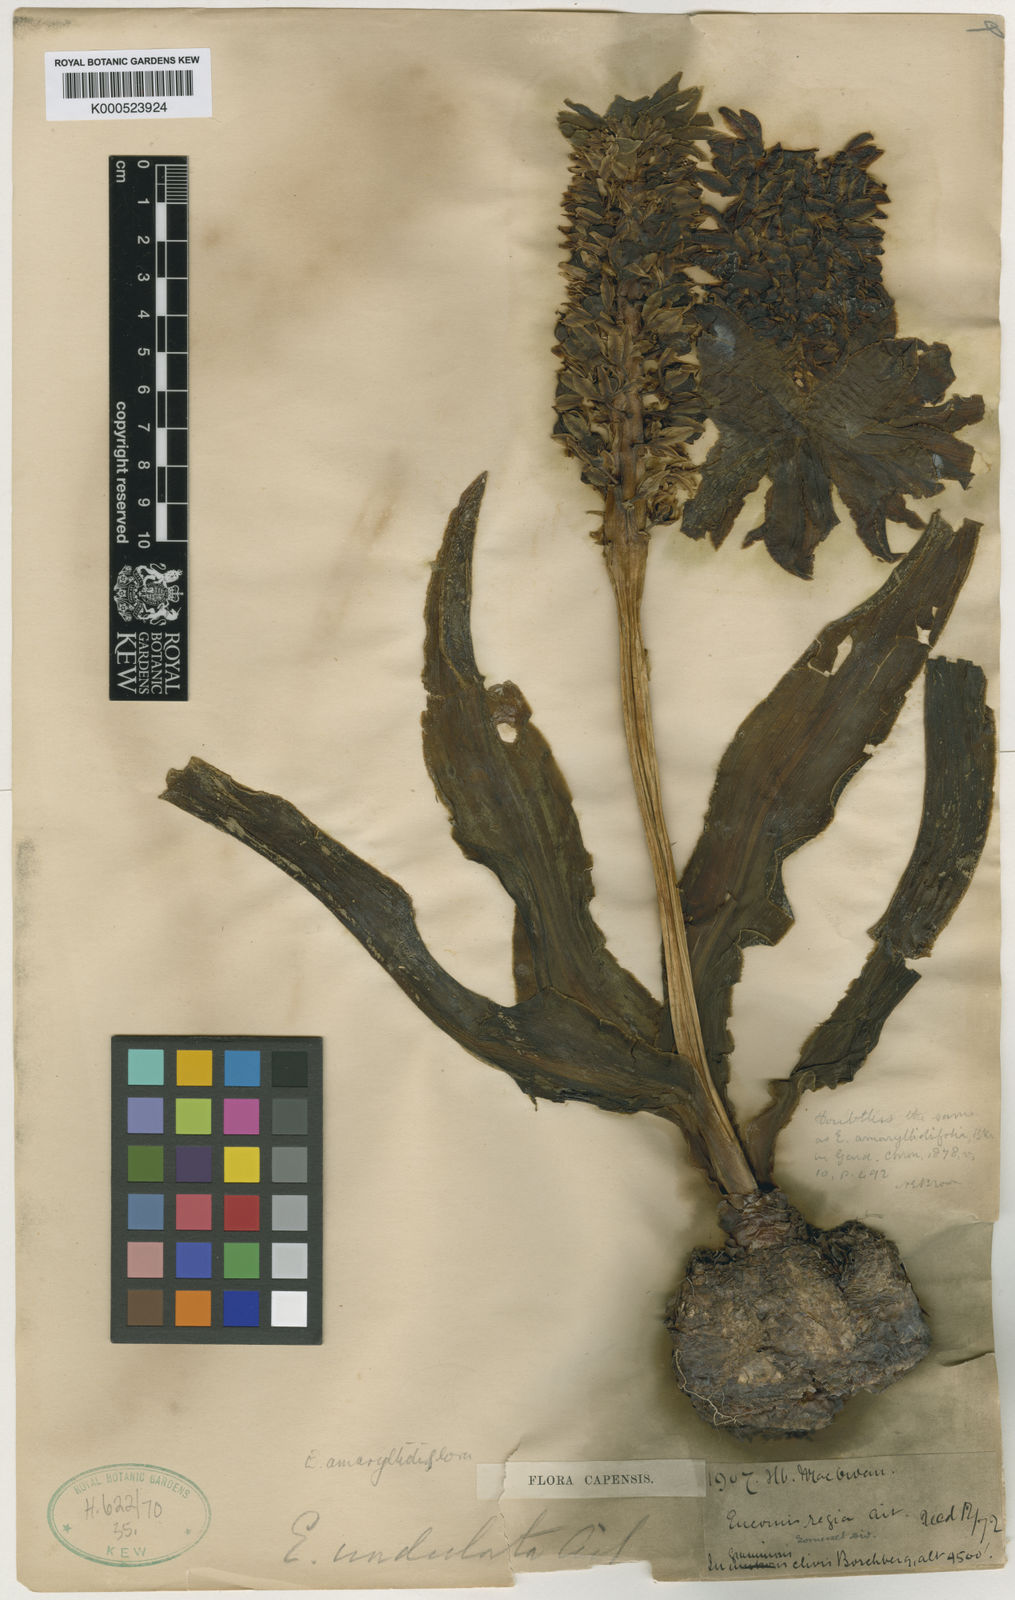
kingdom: Plantae
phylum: Tracheophyta
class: Liliopsida
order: Asparagales
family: Asparagaceae
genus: Eucomis
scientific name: Eucomis amaryllidifolia
